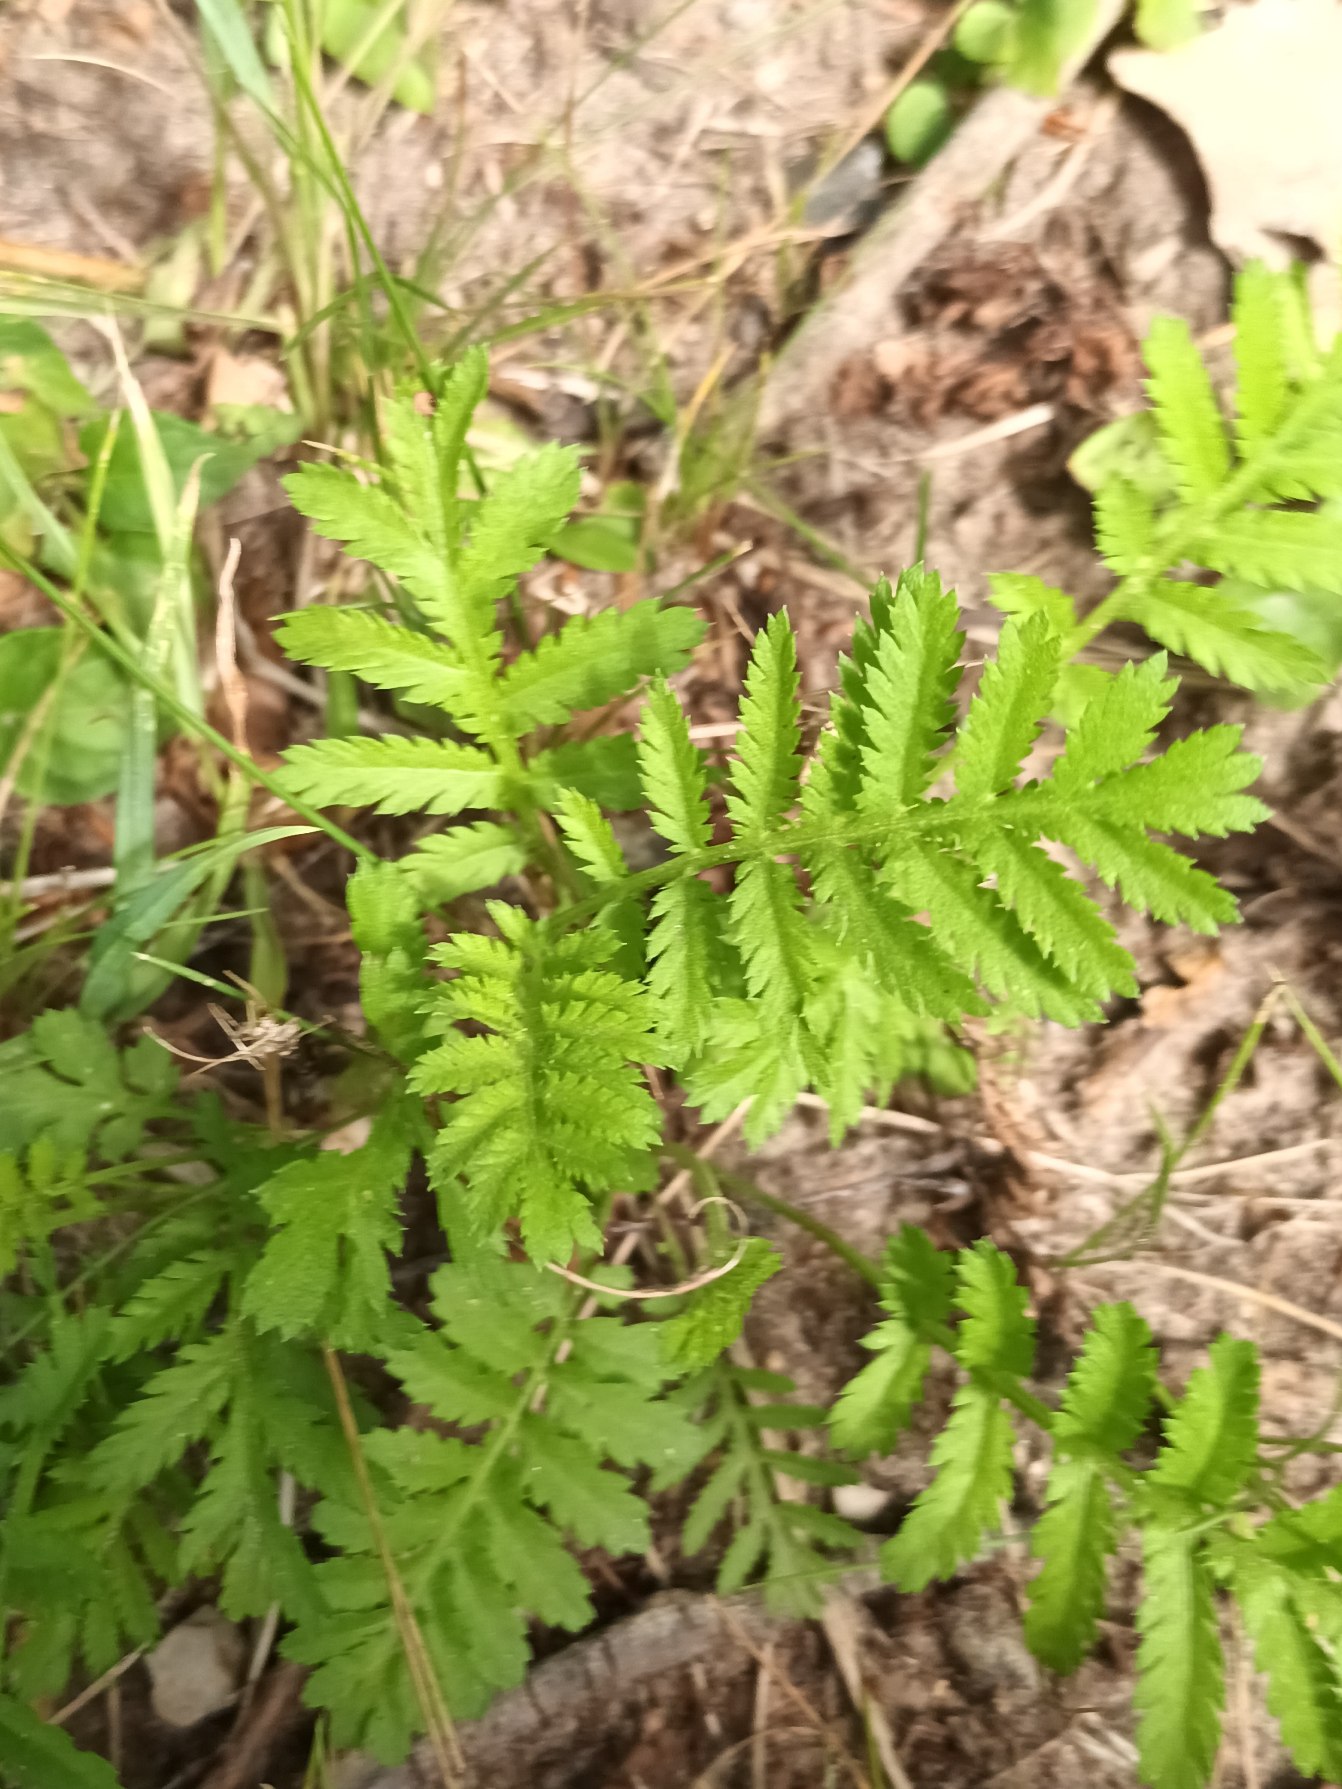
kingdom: Plantae
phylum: Tracheophyta
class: Magnoliopsida
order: Asterales
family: Asteraceae
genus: Tanacetum
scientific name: Tanacetum vulgare
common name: Rejnfan
